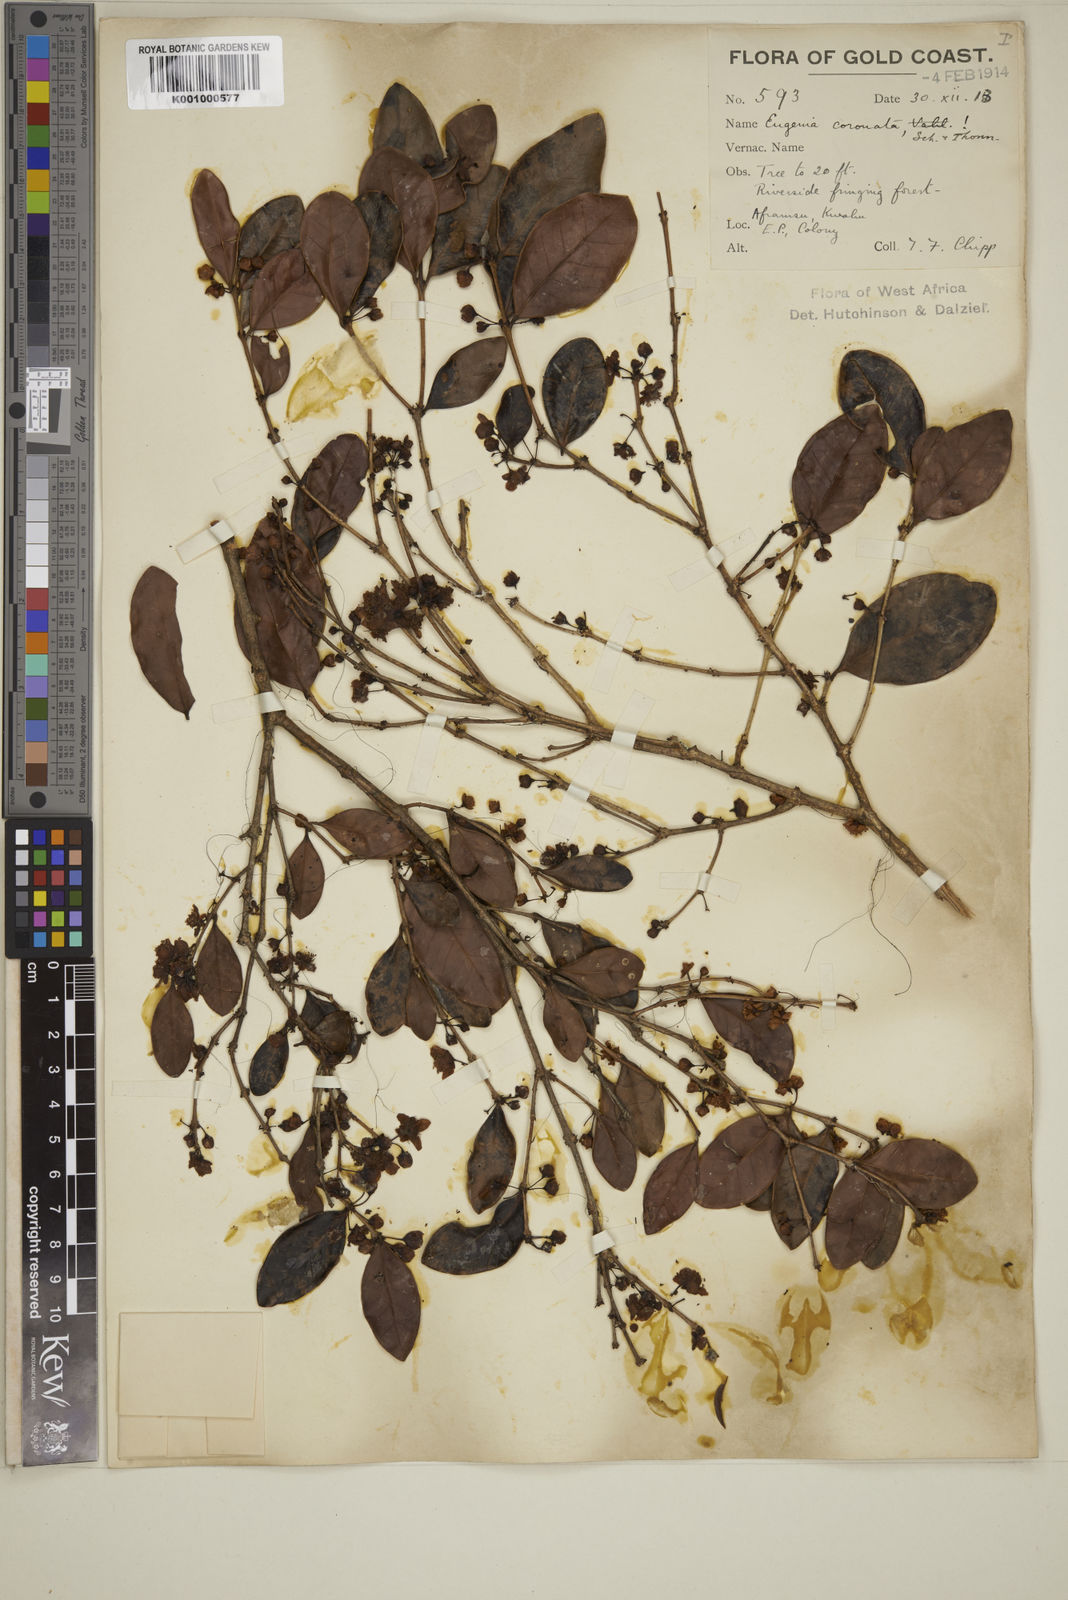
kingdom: Plantae
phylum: Tracheophyta
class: Magnoliopsida
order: Myrtales
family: Myrtaceae
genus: Eugenia
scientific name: Eugenia coronata
